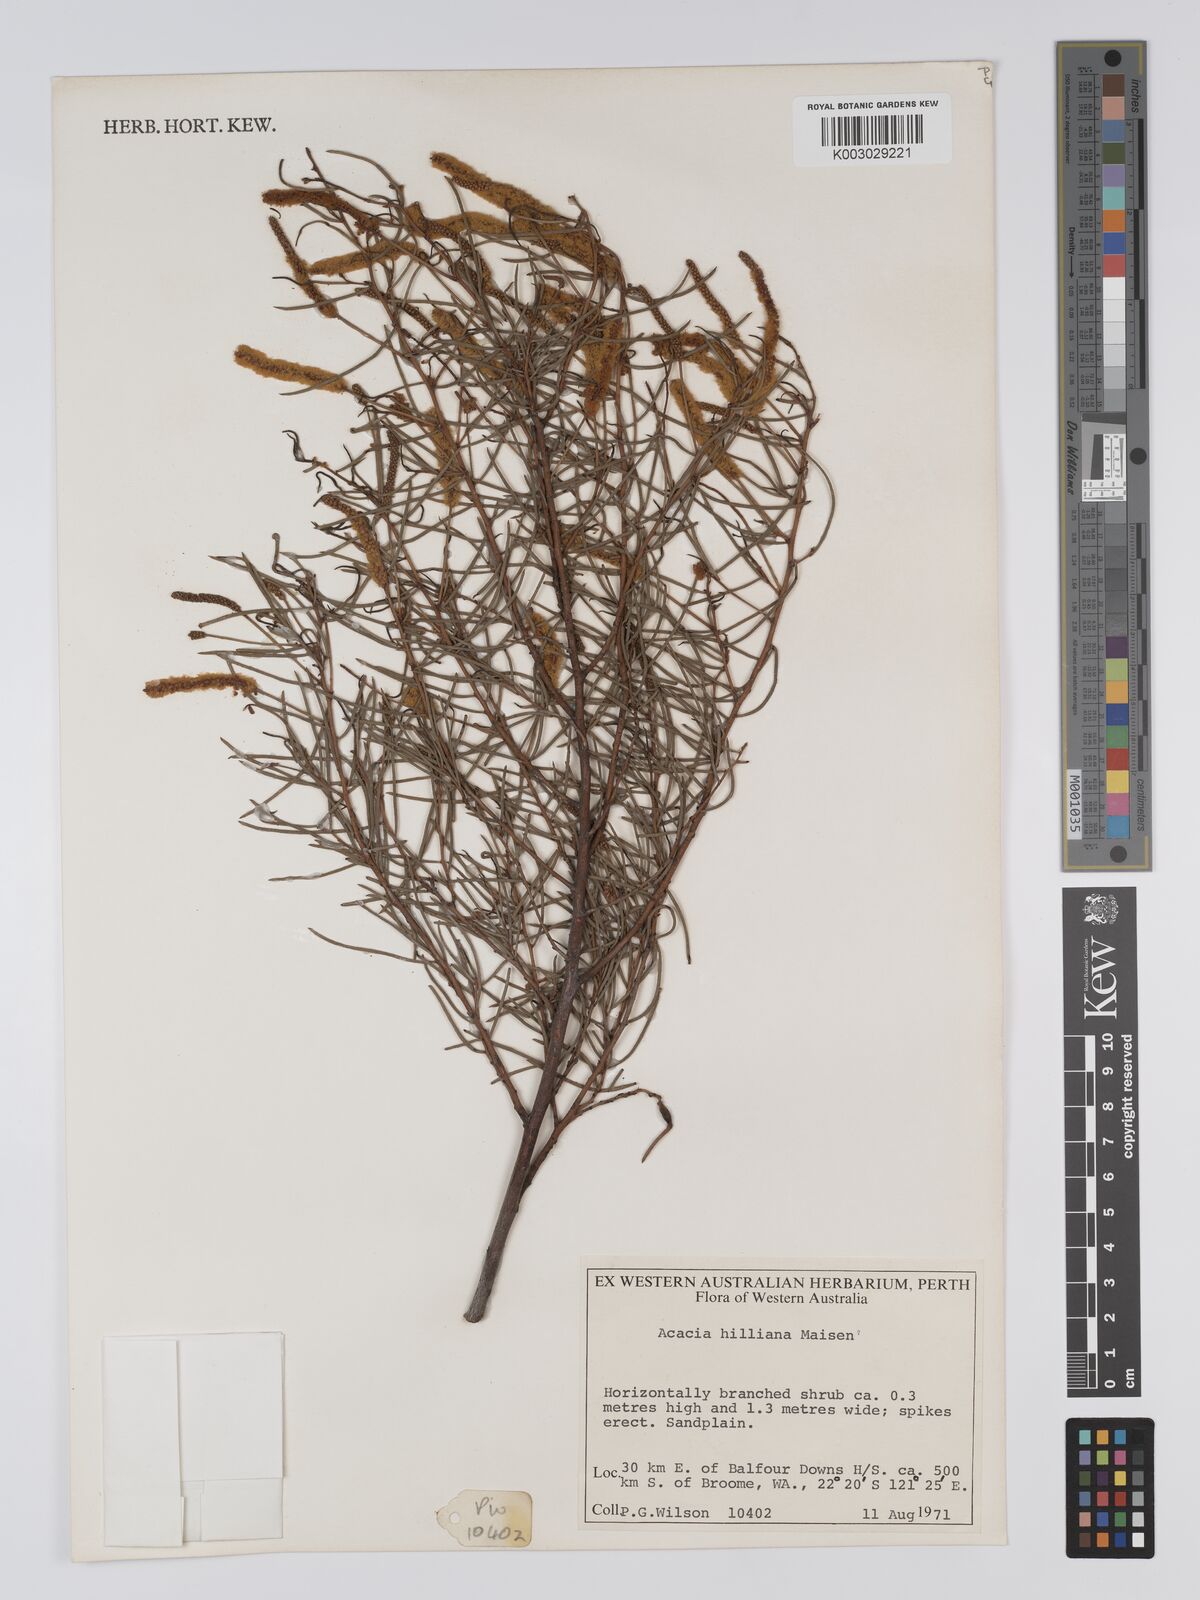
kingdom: Plantae
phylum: Tracheophyta
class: Magnoliopsida
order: Fabales
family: Fabaceae
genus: Acacia
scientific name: Acacia hilliana
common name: Hill's tabletop wattle
